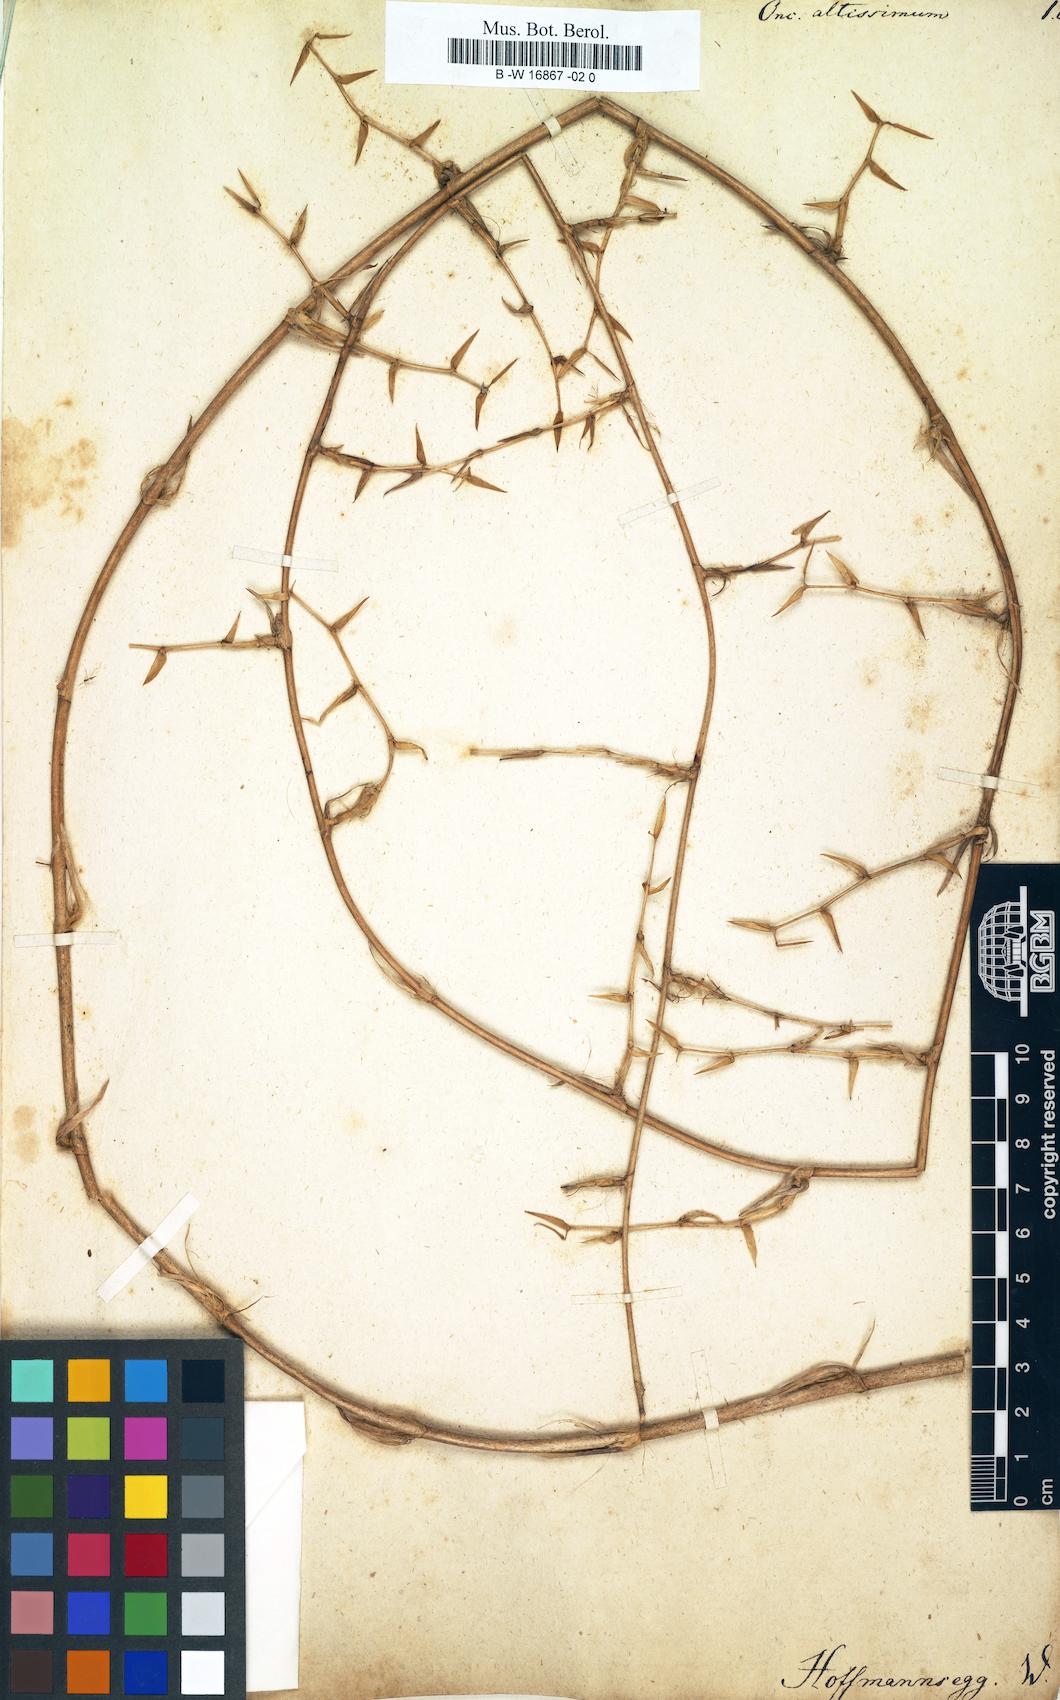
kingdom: Plantae
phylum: Tracheophyta
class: Liliopsida
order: Asparagales
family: Orchidaceae
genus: Oncidium
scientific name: Oncidium altissimum
